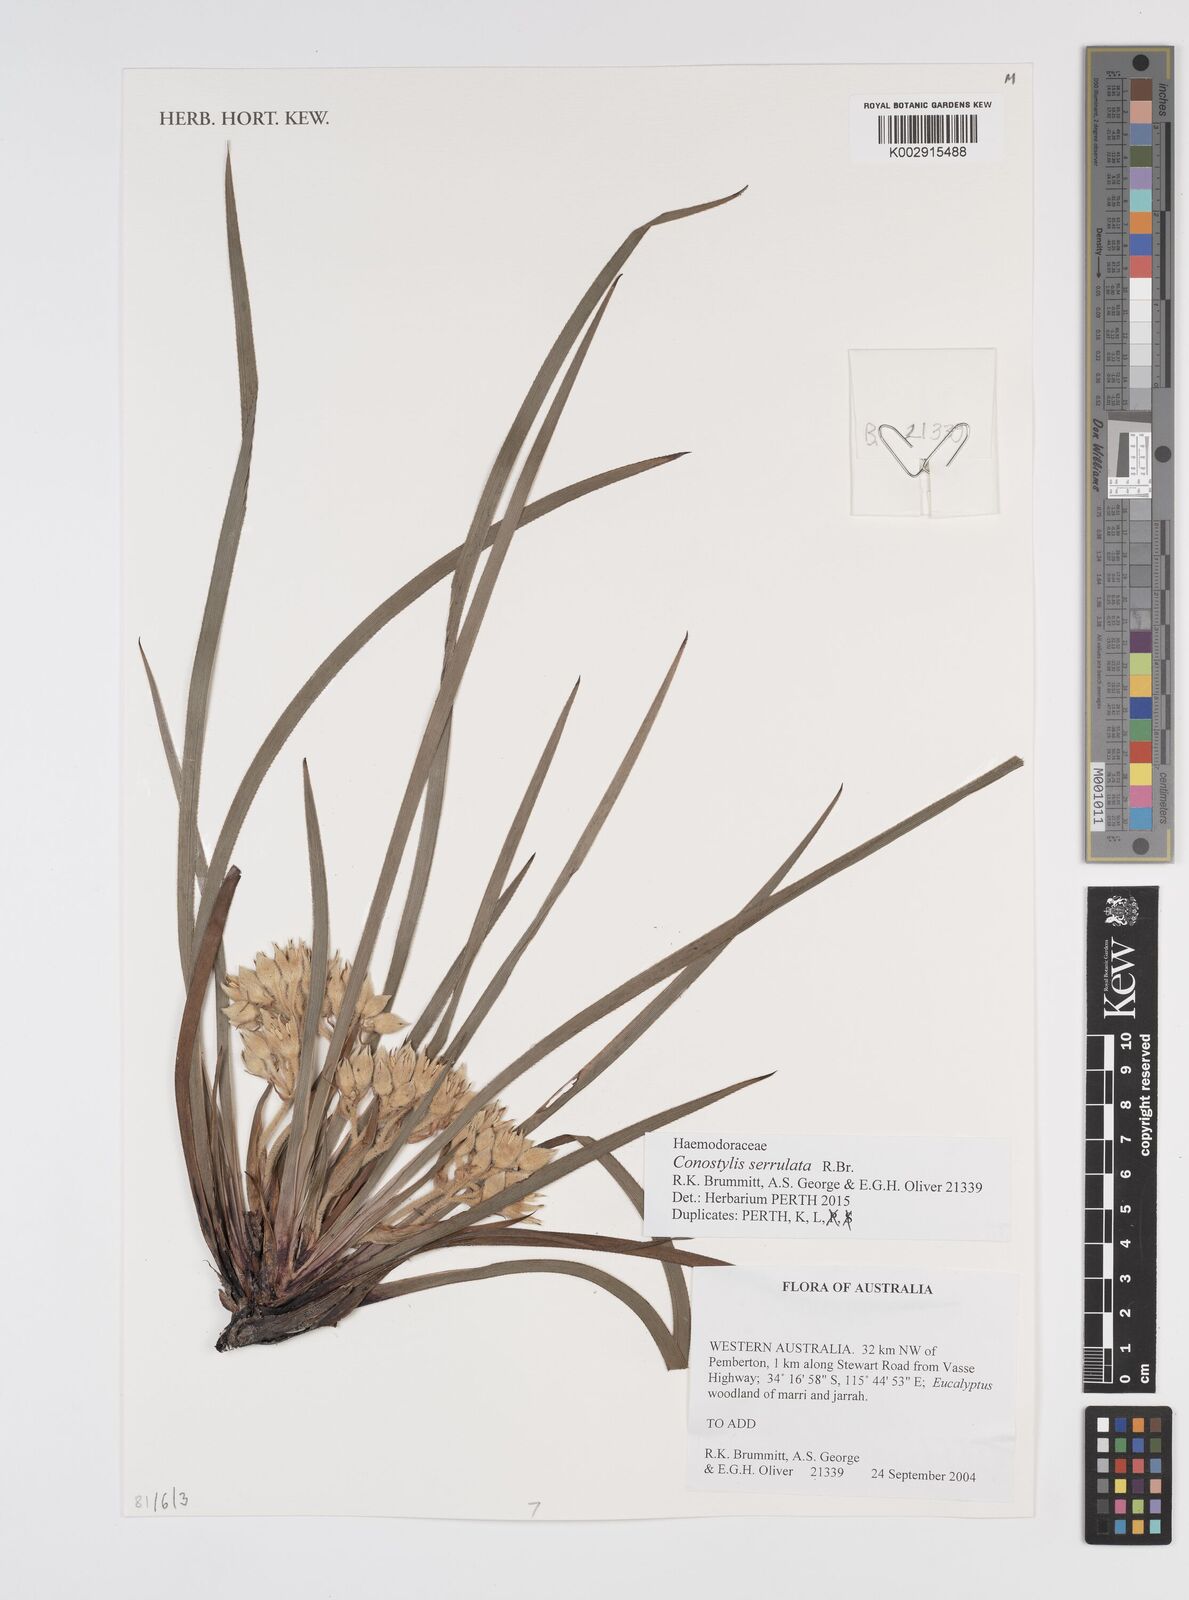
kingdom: Plantae
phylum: Tracheophyta
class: Liliopsida
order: Commelinales
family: Haemodoraceae
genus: Conostylis
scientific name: Conostylis serrulata
